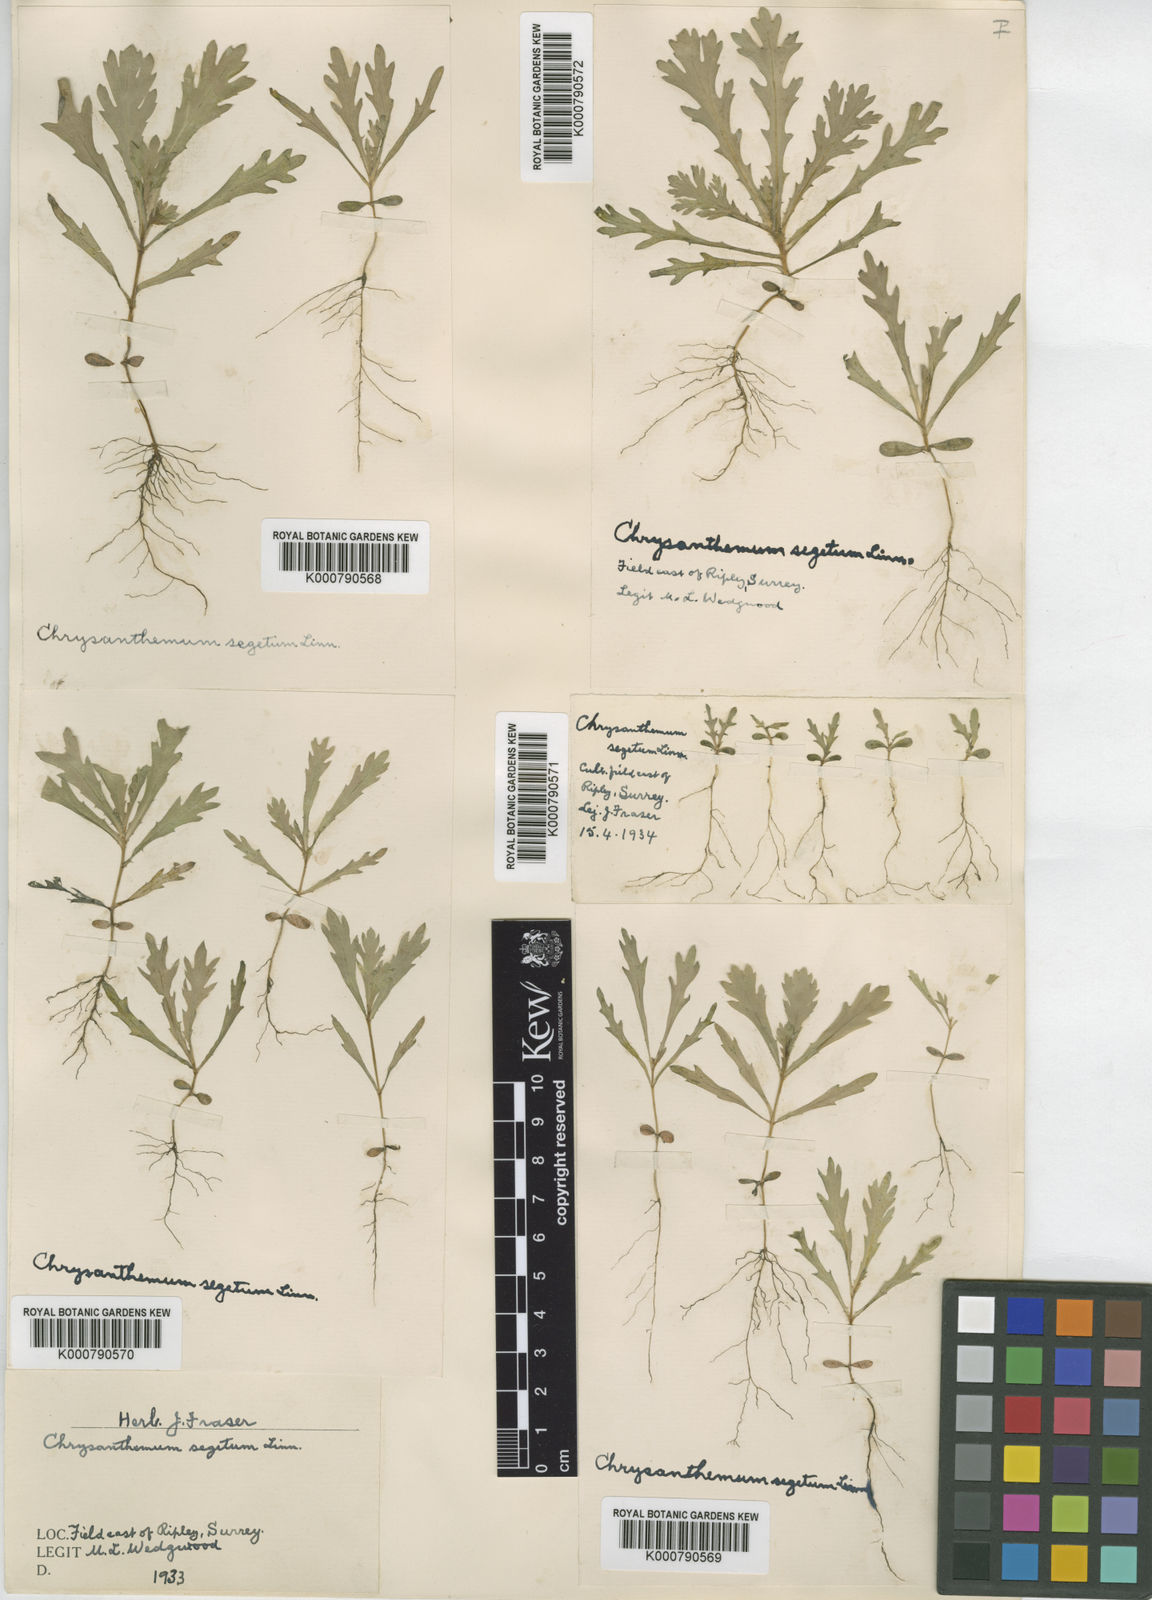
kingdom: Plantae
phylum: Tracheophyta
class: Magnoliopsida
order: Asterales
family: Asteraceae
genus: Glebionis
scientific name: Glebionis
